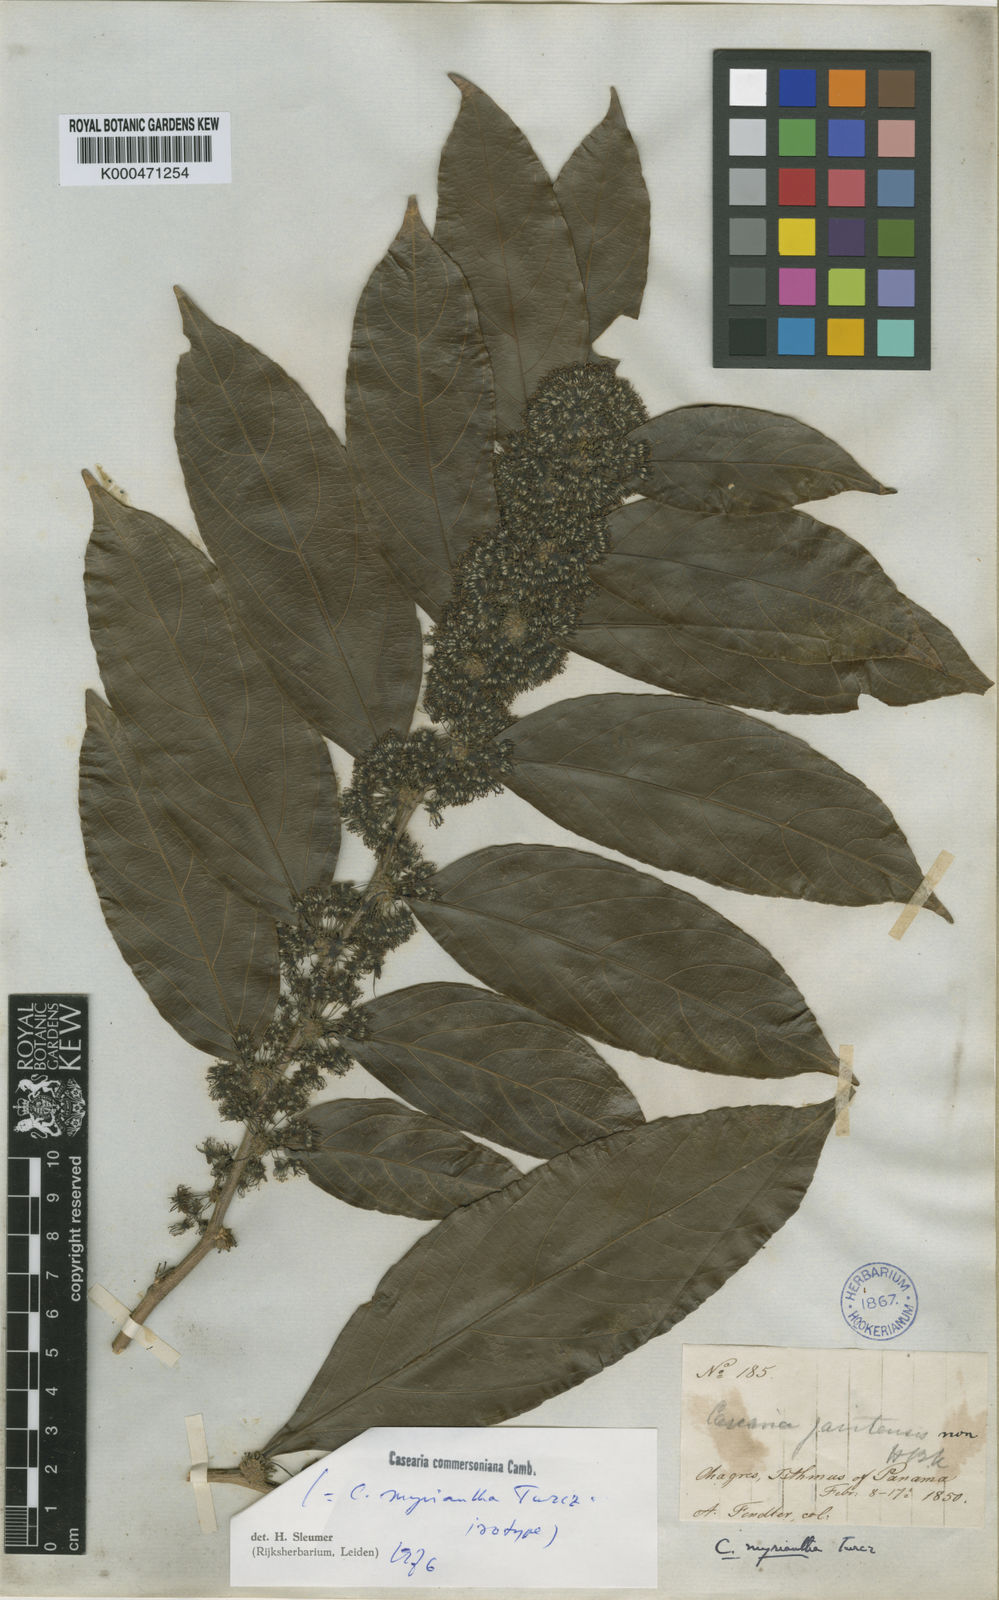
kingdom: Plantae
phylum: Tracheophyta
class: Magnoliopsida
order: Malpighiales
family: Salicaceae
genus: Piparea
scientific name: Piparea dentata
